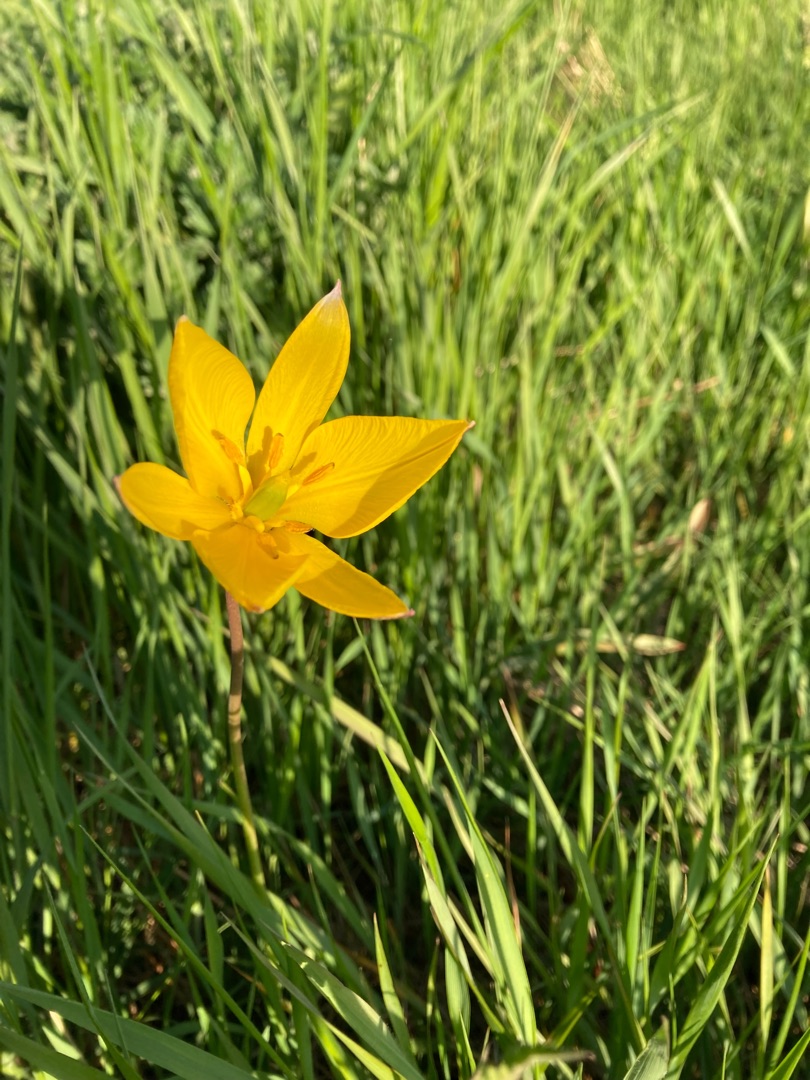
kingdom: Plantae
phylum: Tracheophyta
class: Liliopsida
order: Liliales
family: Liliaceae
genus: Tulipa
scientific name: Tulipa sylvestris
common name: Vild tulipan
